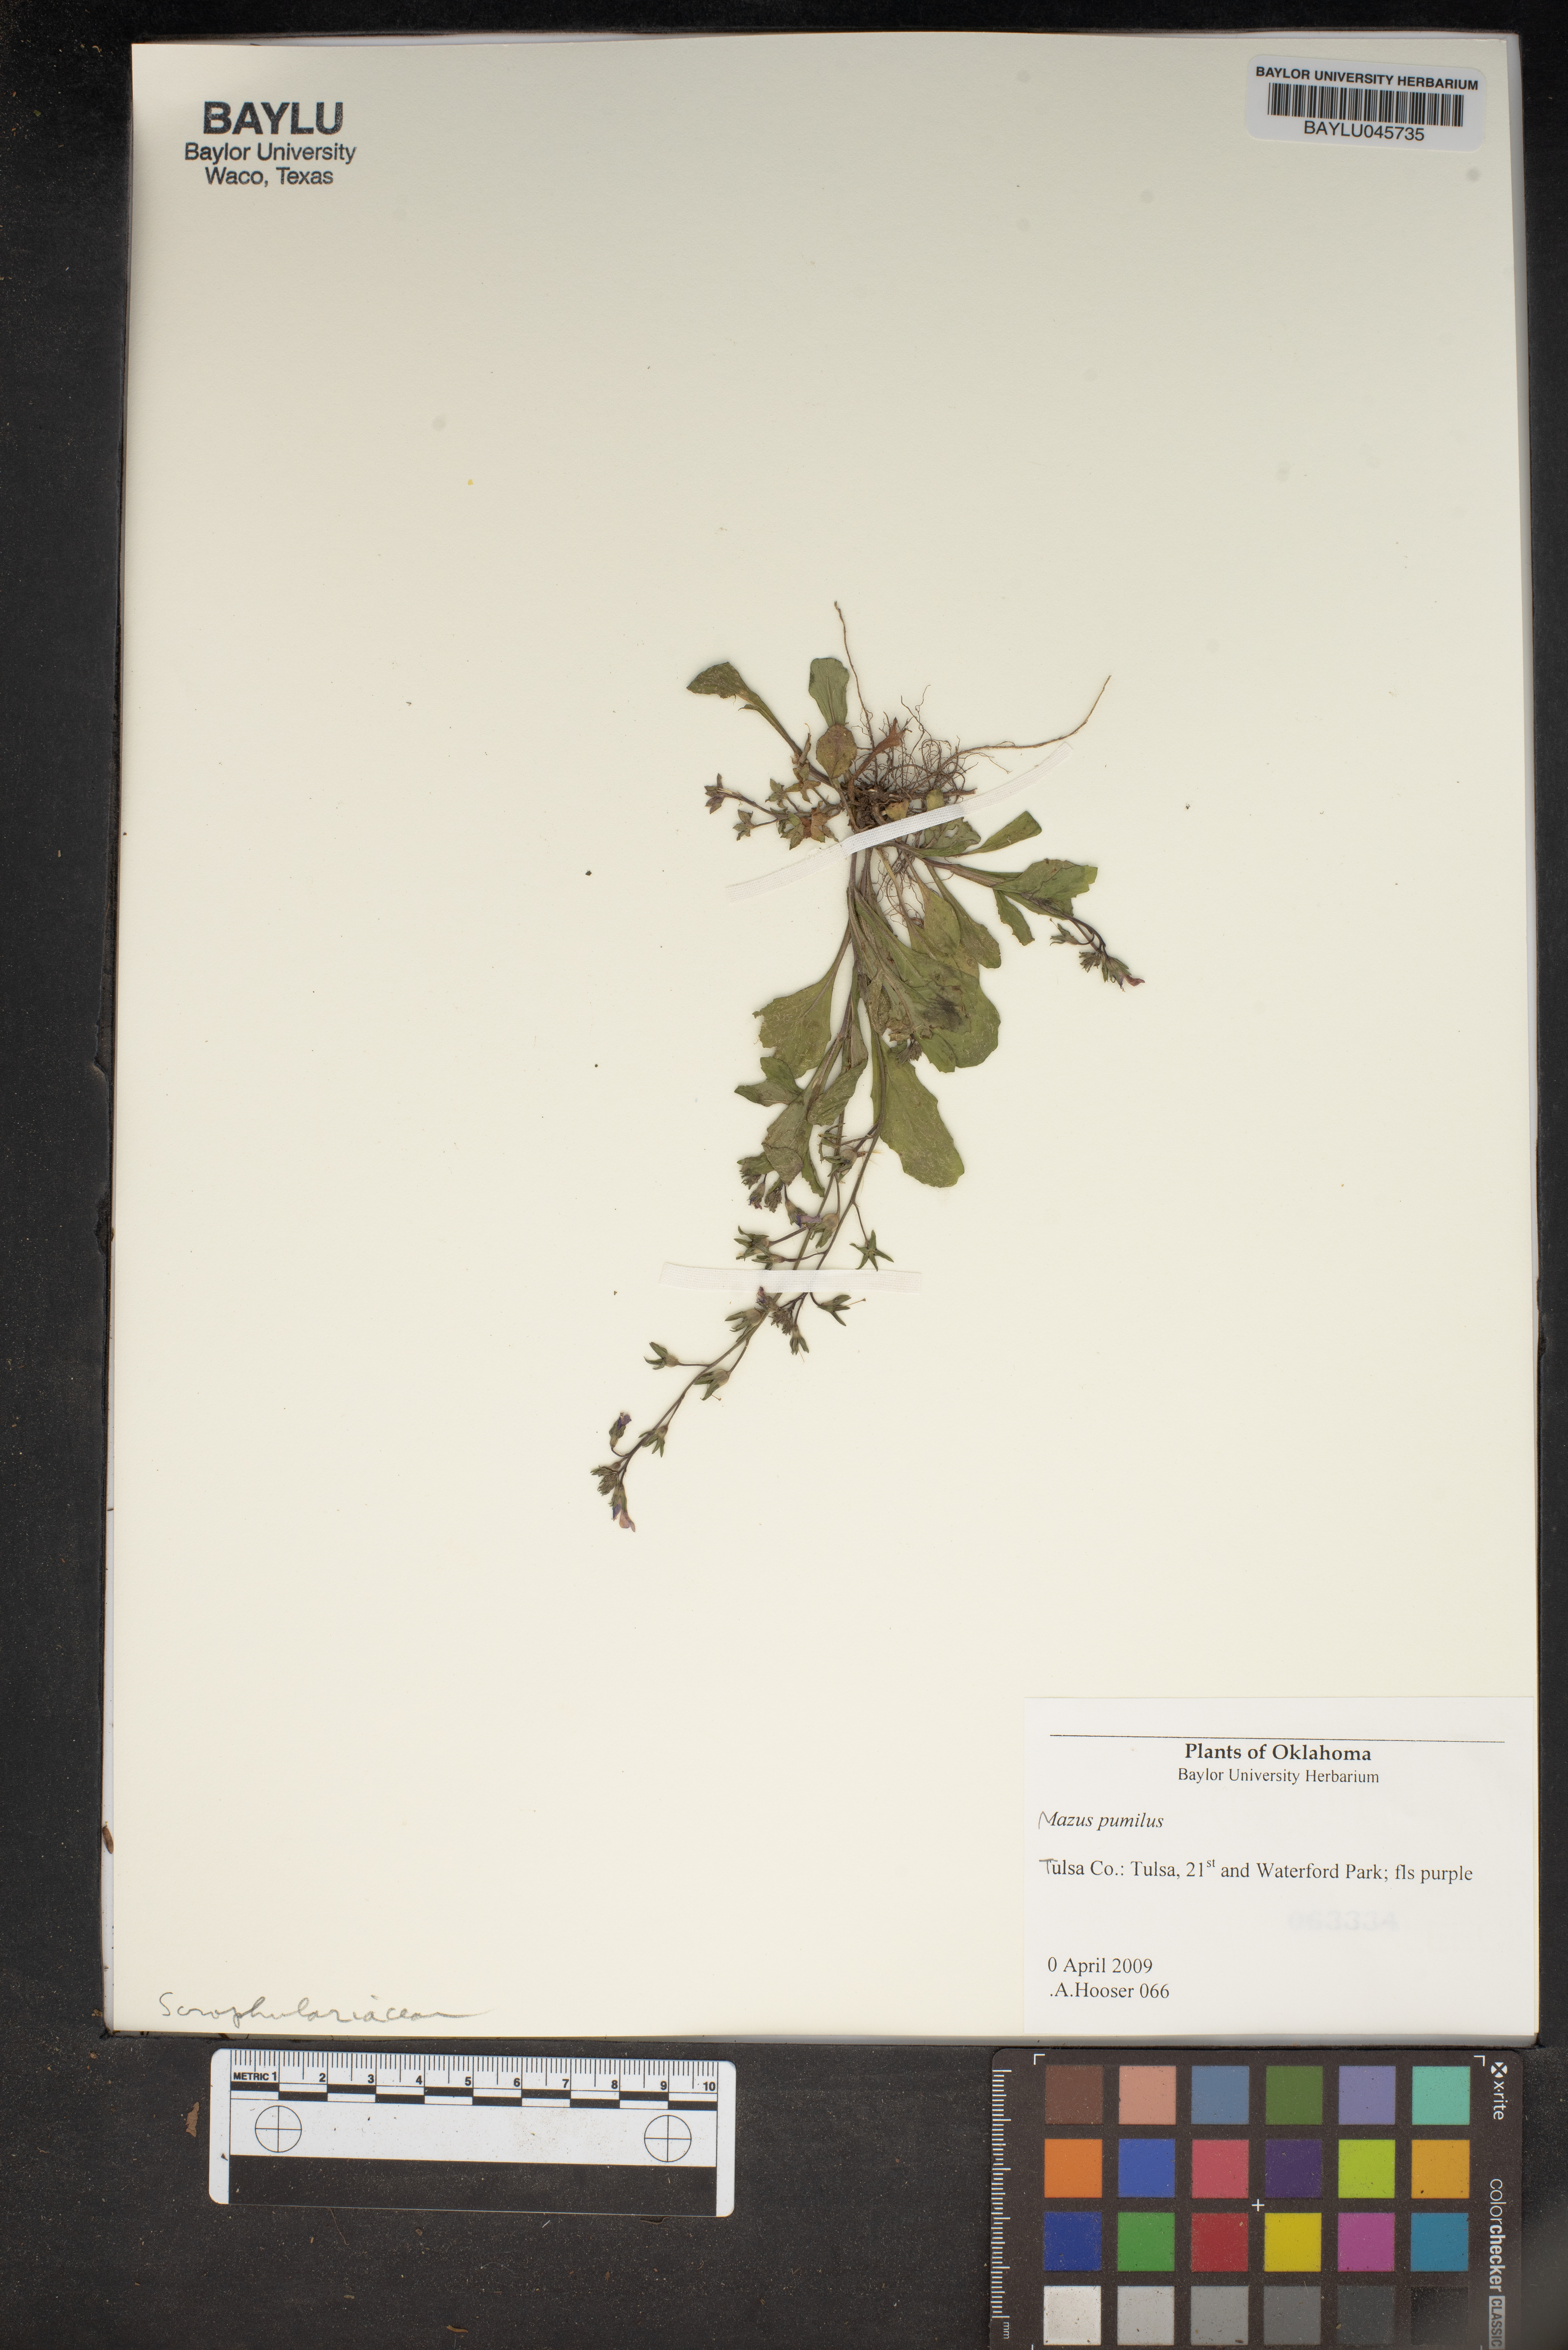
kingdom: Plantae
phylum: Tracheophyta
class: Magnoliopsida
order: Lamiales
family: Mazaceae
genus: Mazus
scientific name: Mazus pumilus
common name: Japanese mazus
